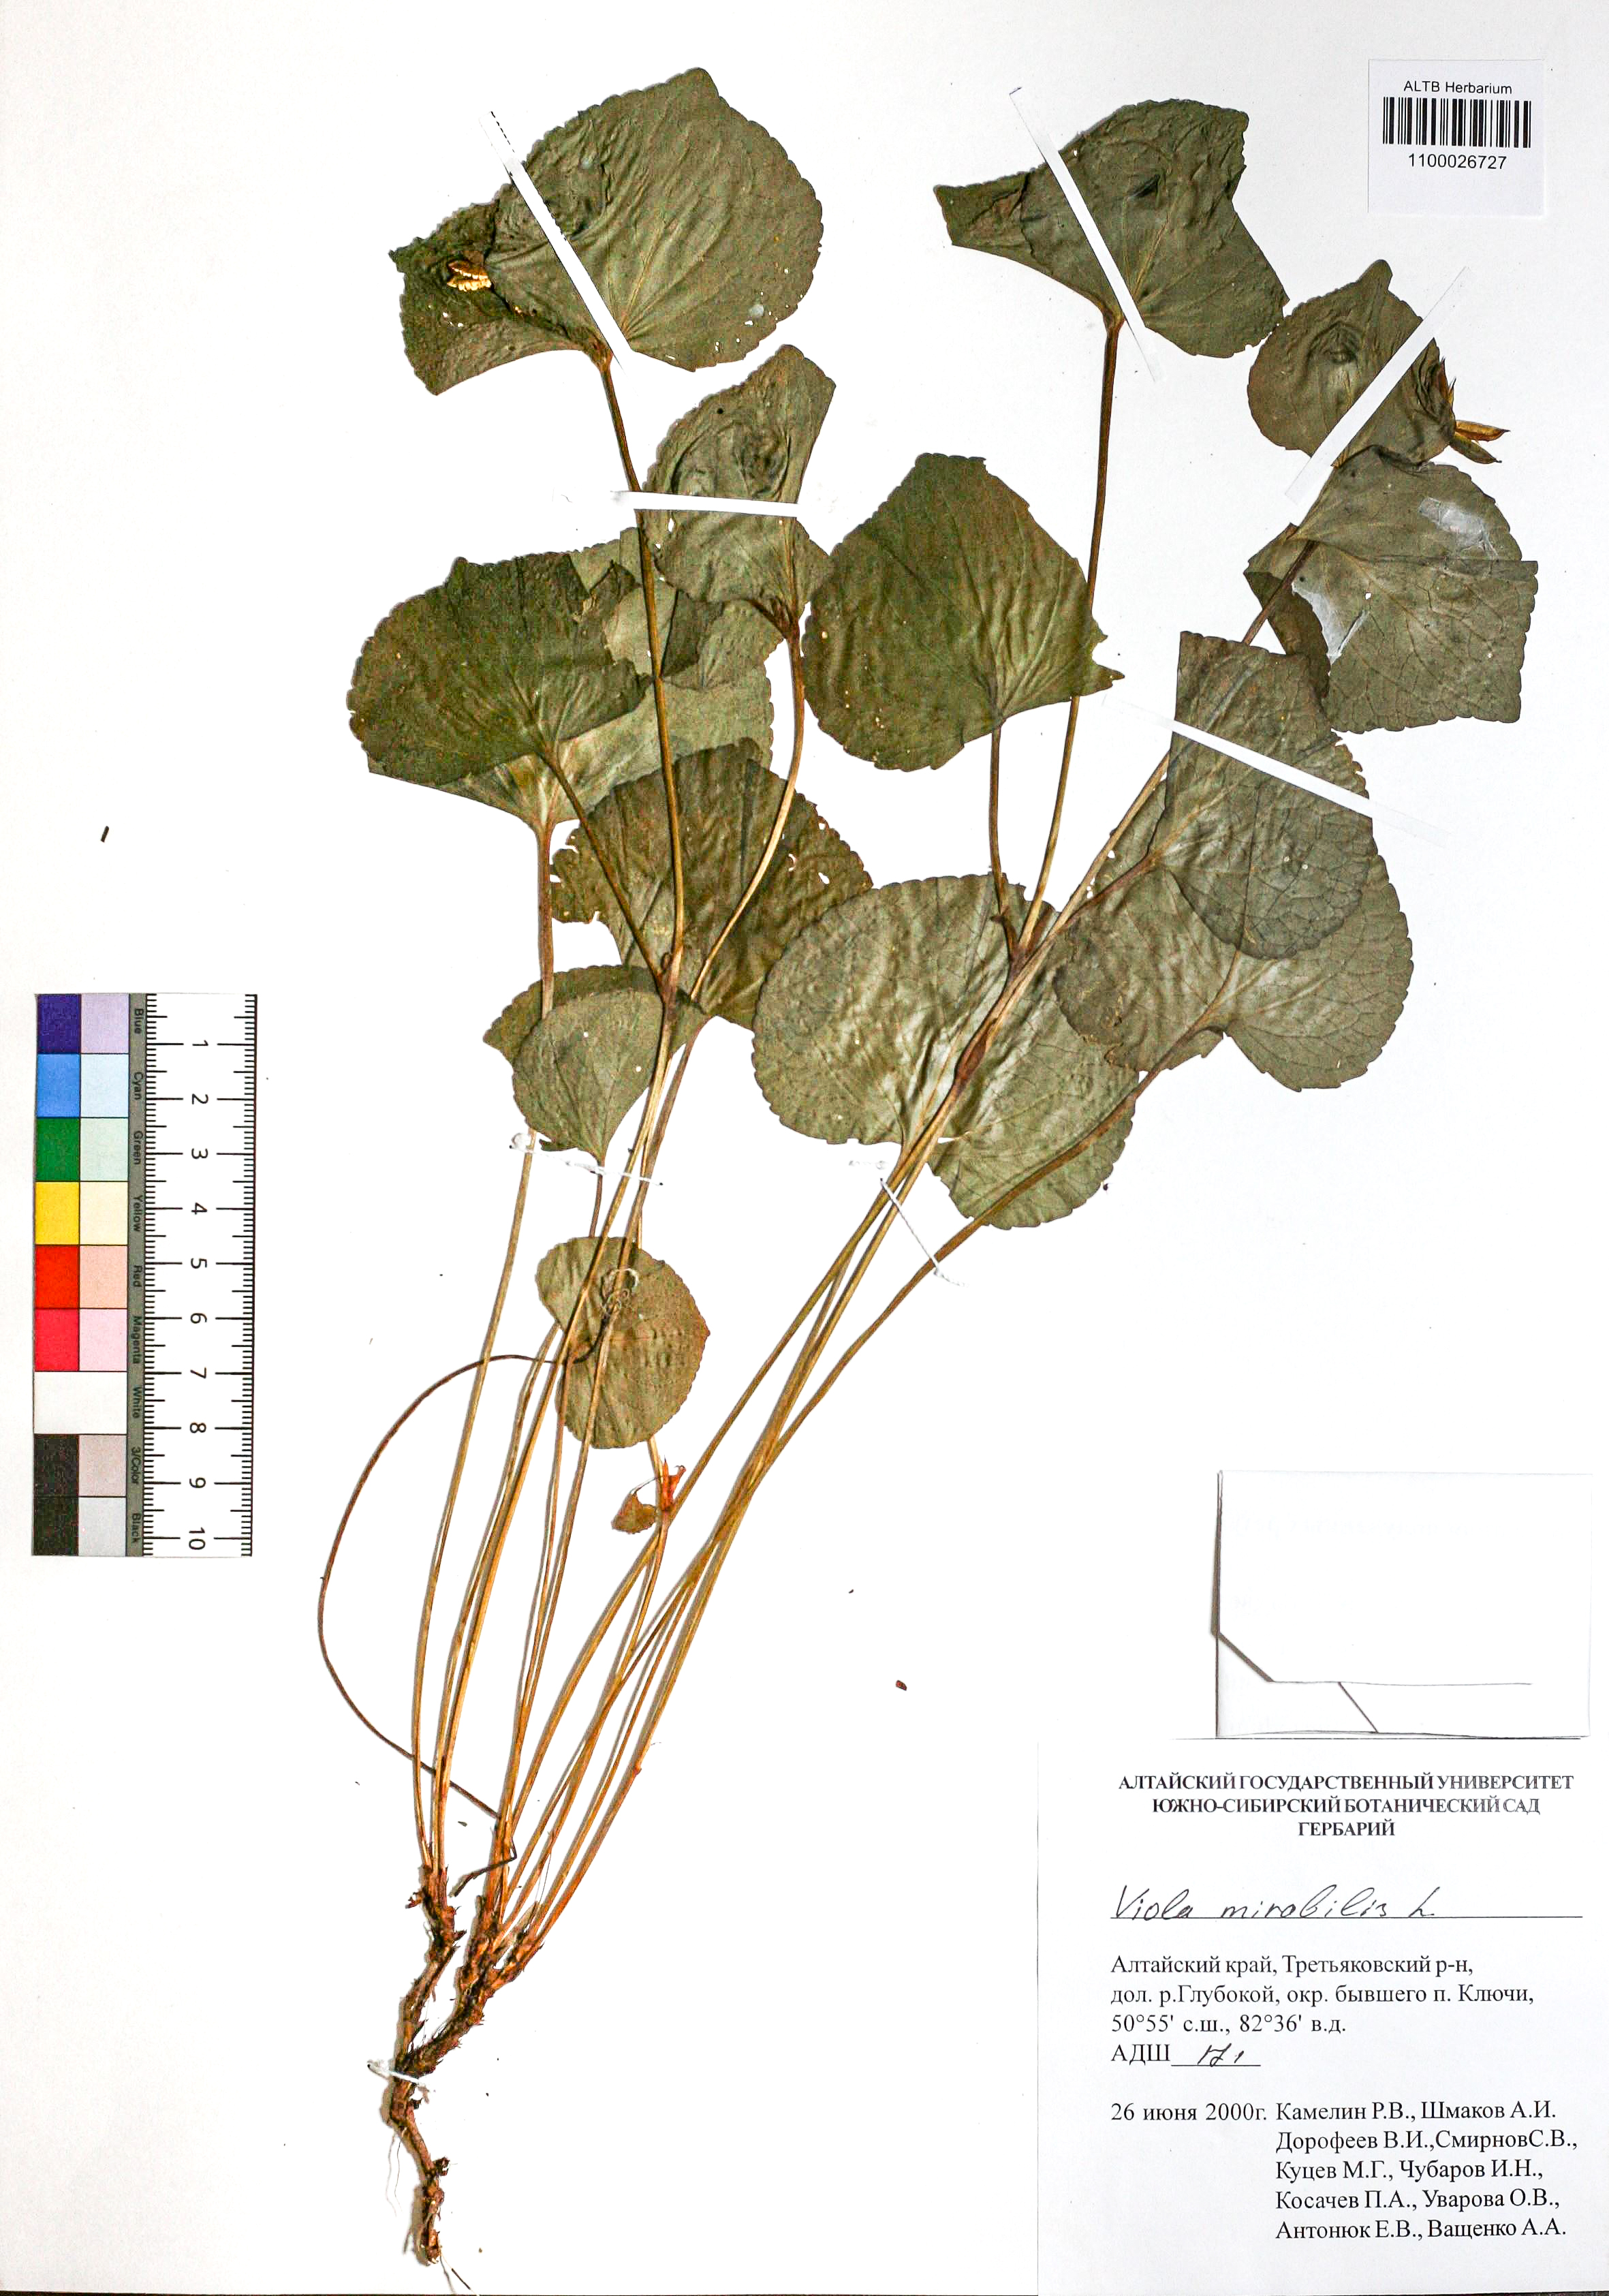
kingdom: Plantae
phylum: Tracheophyta
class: Magnoliopsida
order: Malpighiales
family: Violaceae
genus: Viola
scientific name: Viola mirabilis
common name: Wonder violet
